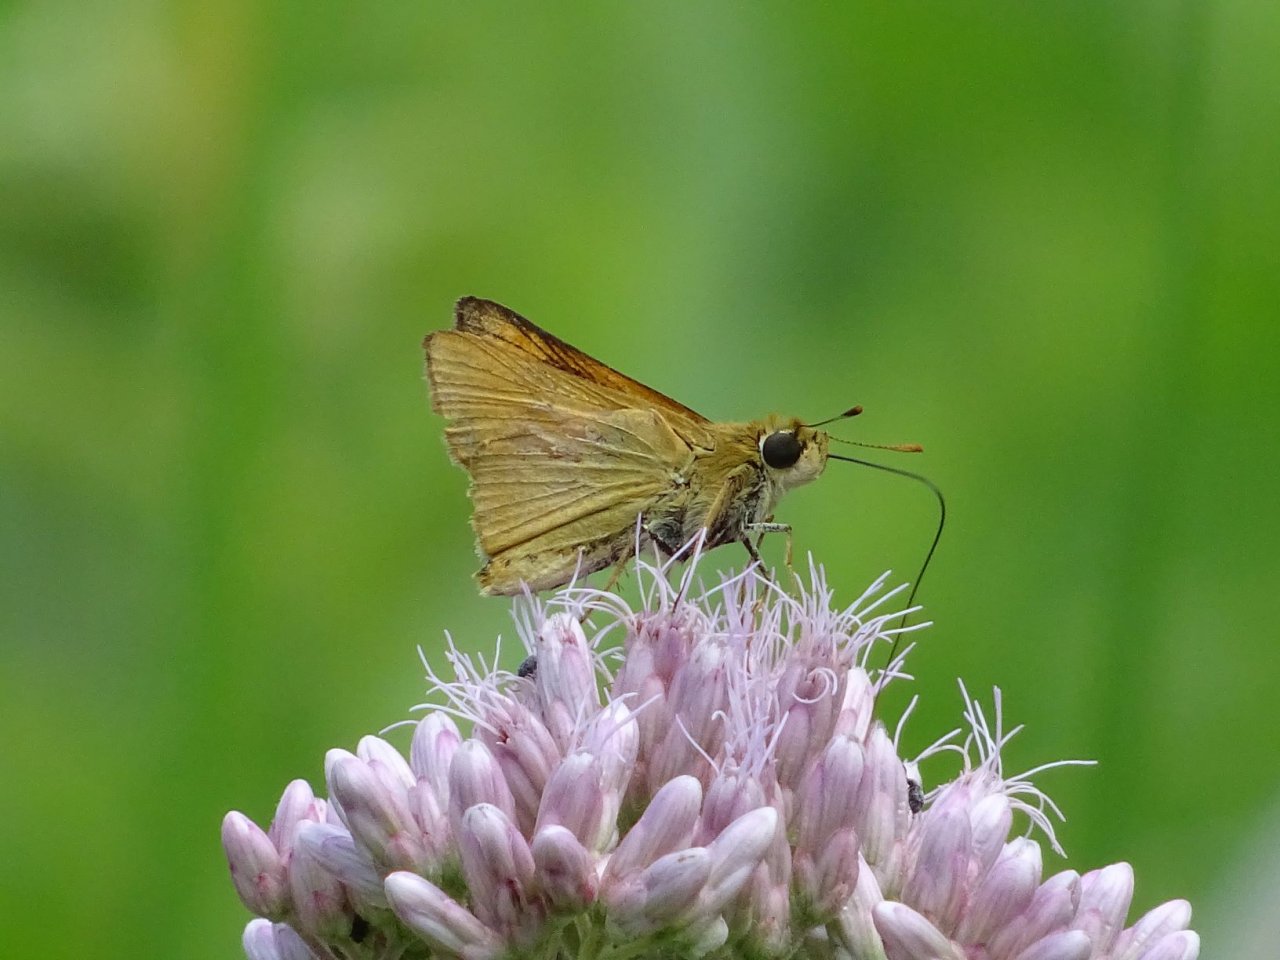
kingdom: Animalia
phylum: Arthropoda
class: Insecta
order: Lepidoptera
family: Hesperiidae
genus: Atrytone
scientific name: Atrytone delaware
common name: Delaware Skipper
